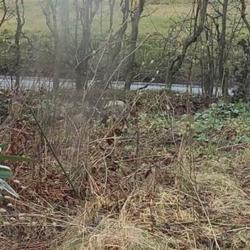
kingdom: Animalia
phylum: Chordata
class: Aves
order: Galliformes
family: Phasianidae
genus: Phasianus
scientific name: Phasianus colchicus
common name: Fasan
